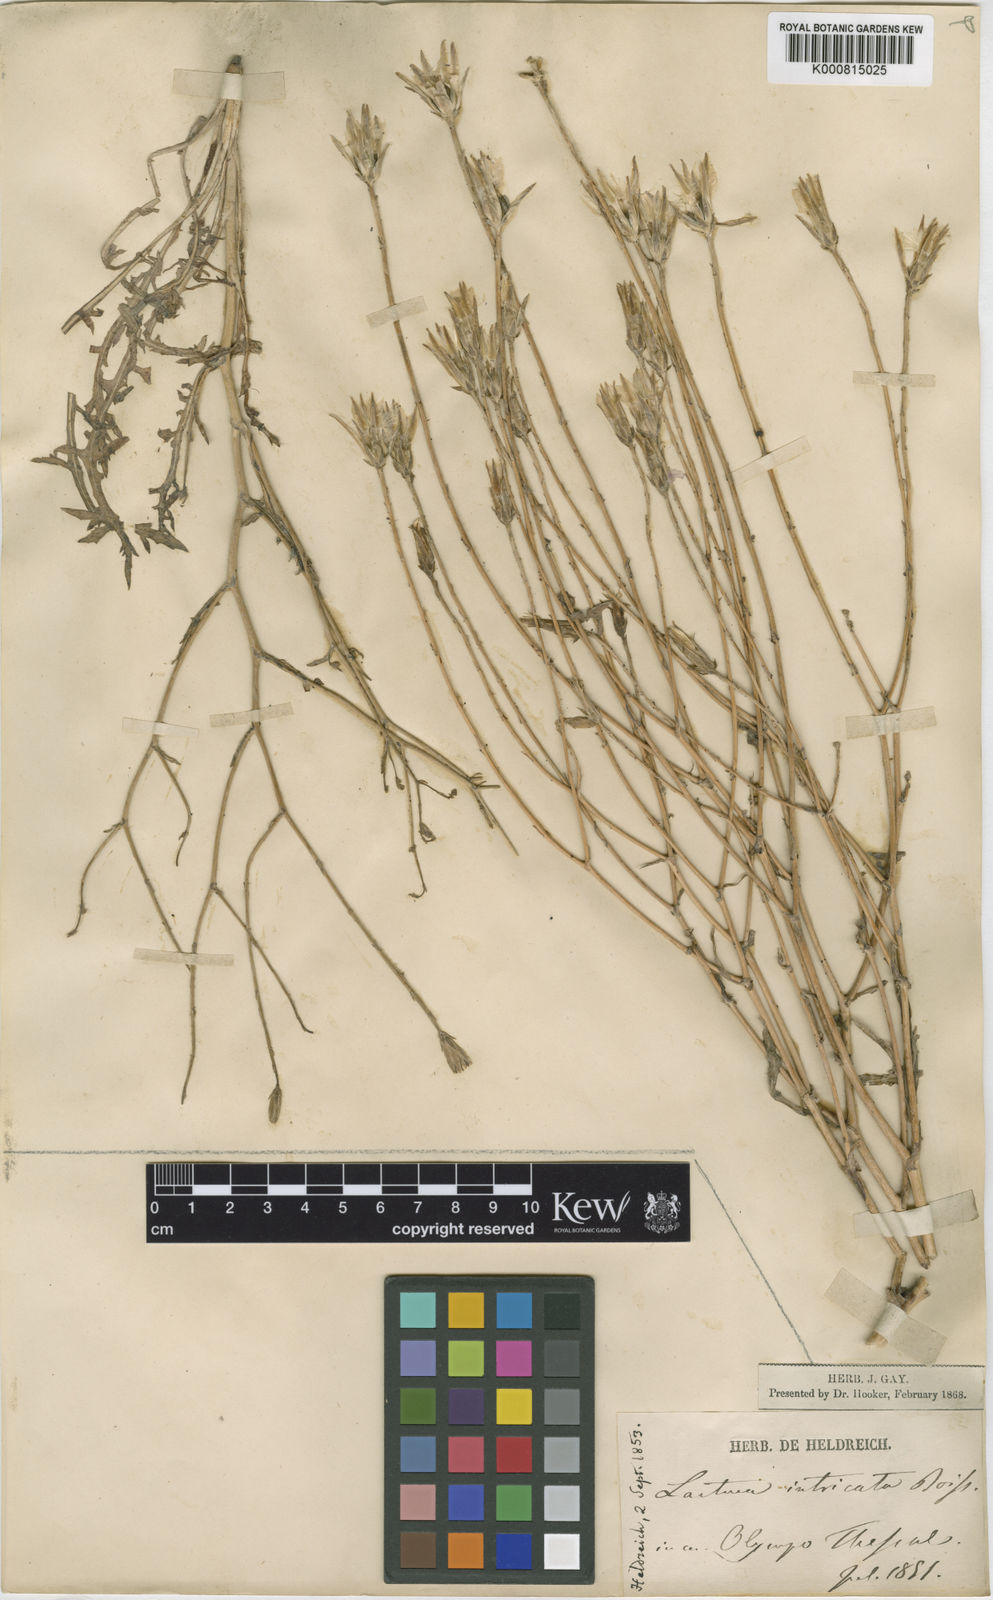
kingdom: Plantae
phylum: Tracheophyta
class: Magnoliopsida
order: Asterales
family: Asteraceae
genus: Lactuca
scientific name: Lactuca intricata
